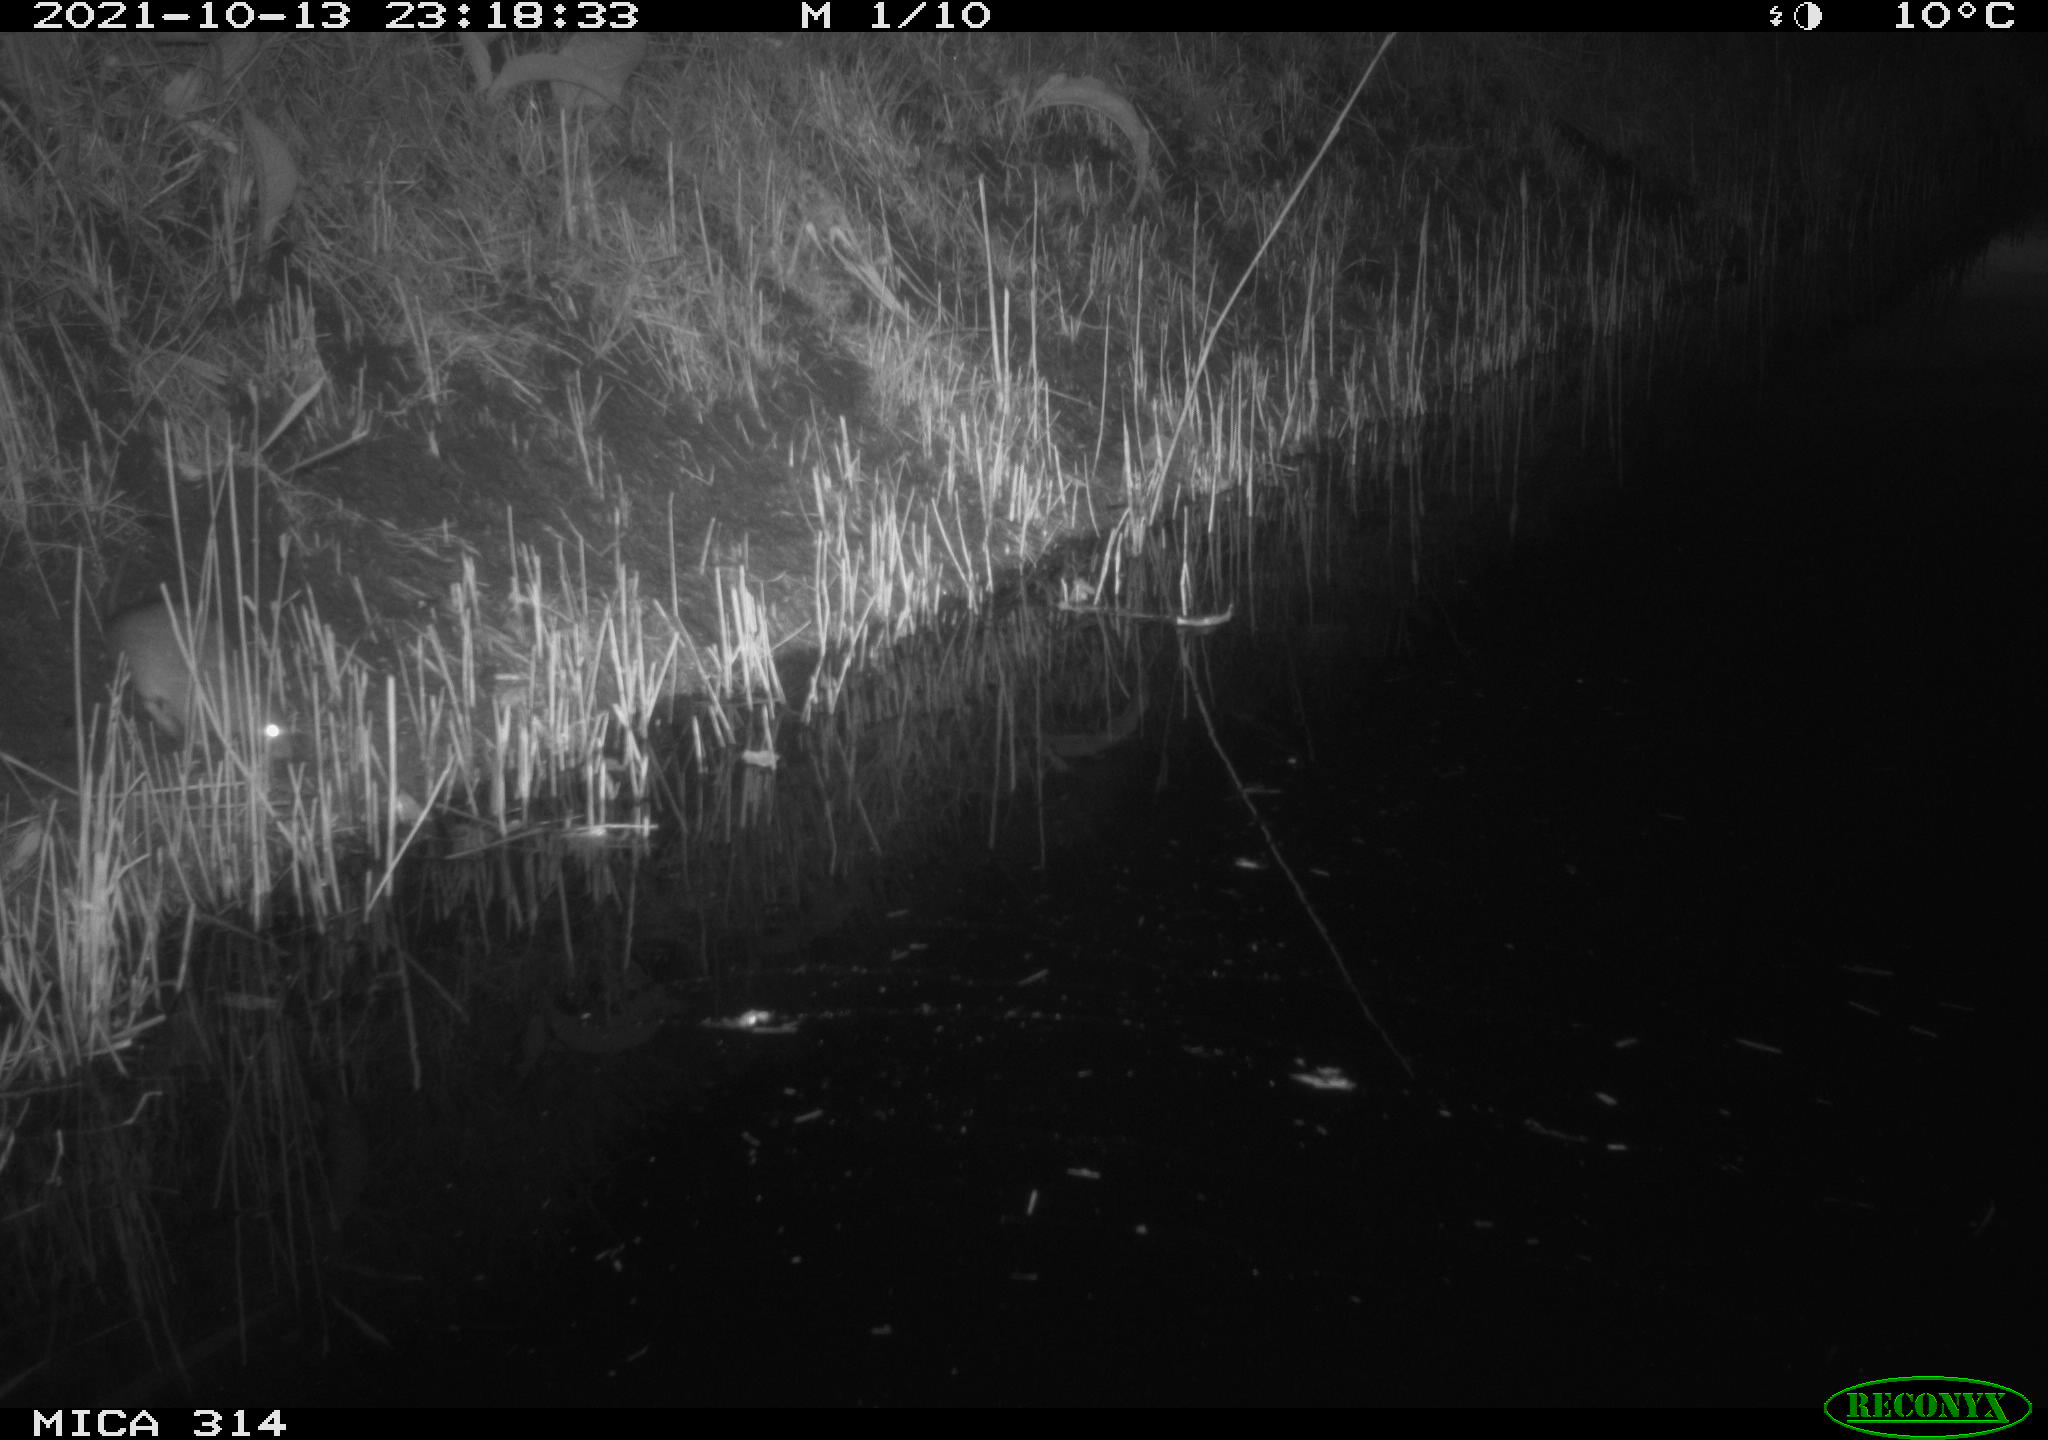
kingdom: Animalia
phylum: Chordata
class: Mammalia
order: Rodentia
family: Muridae
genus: Rattus
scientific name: Rattus norvegicus
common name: Brown rat
